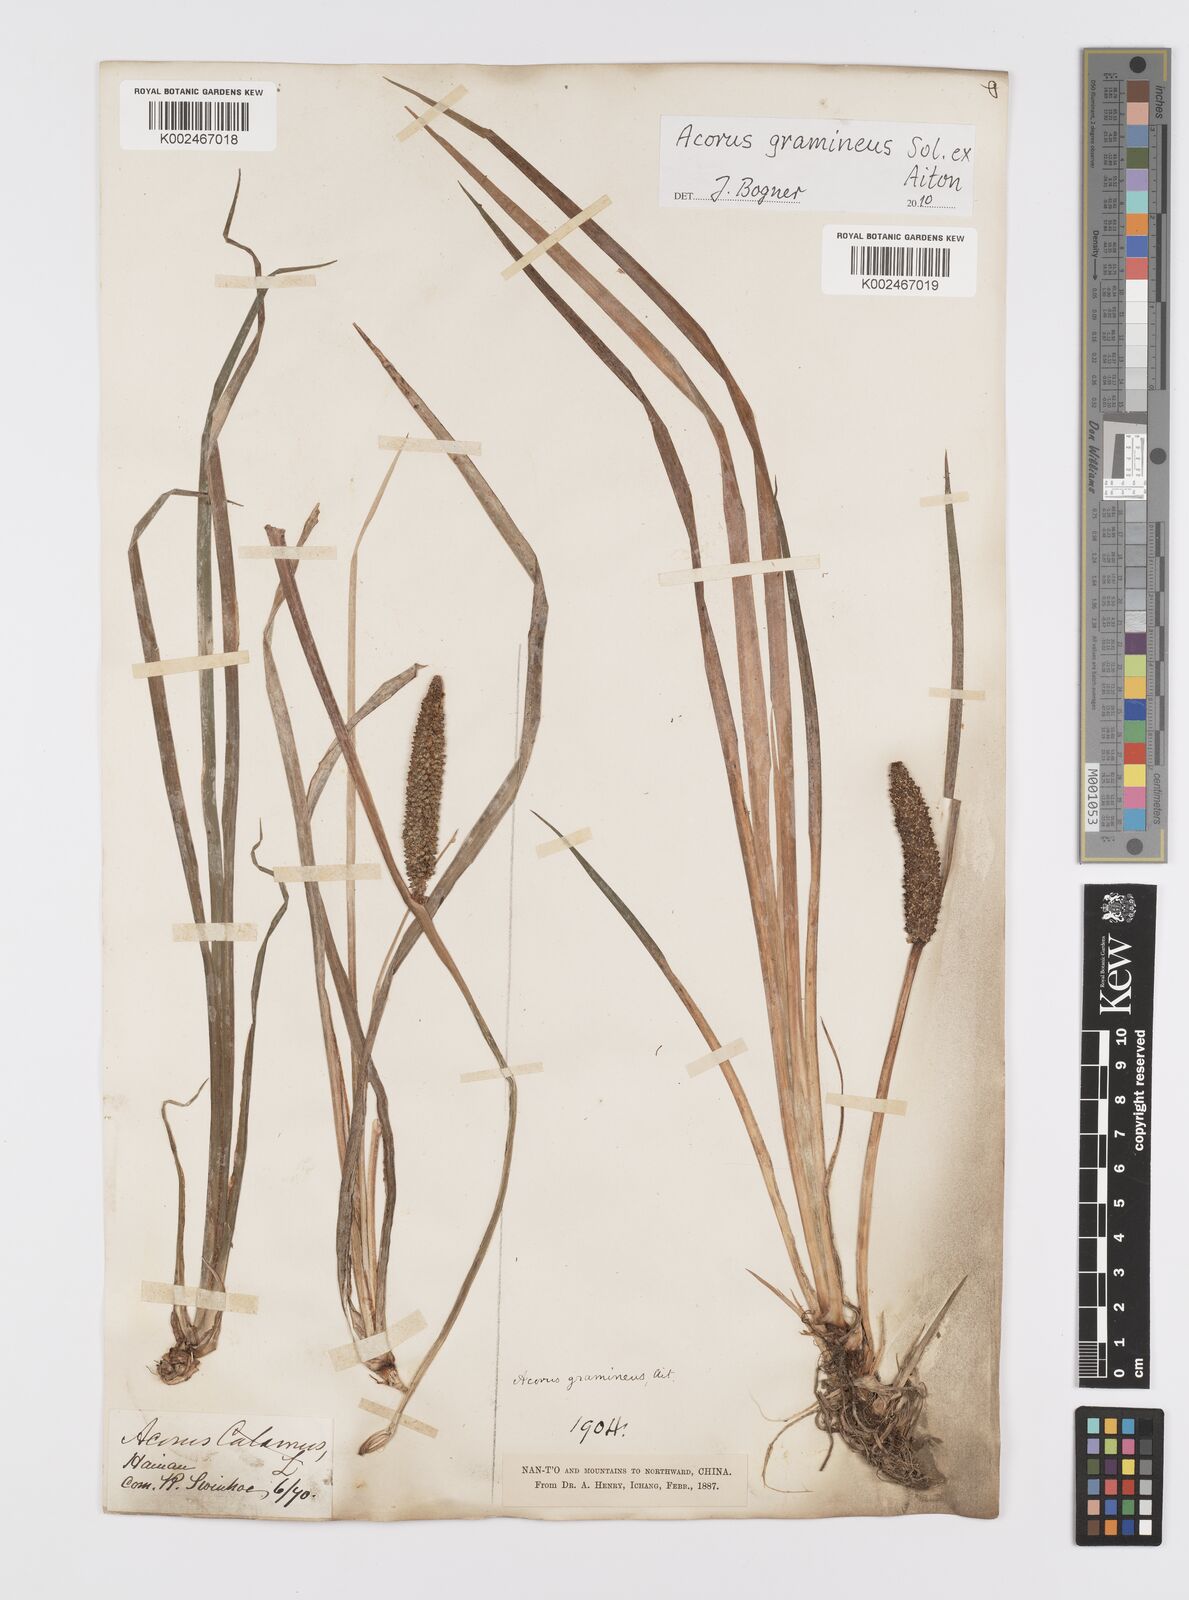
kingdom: Plantae
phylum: Tracheophyta
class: Liliopsida
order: Acorales
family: Acoraceae
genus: Acorus
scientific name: Acorus gramineus
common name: Slender sweet-flag
